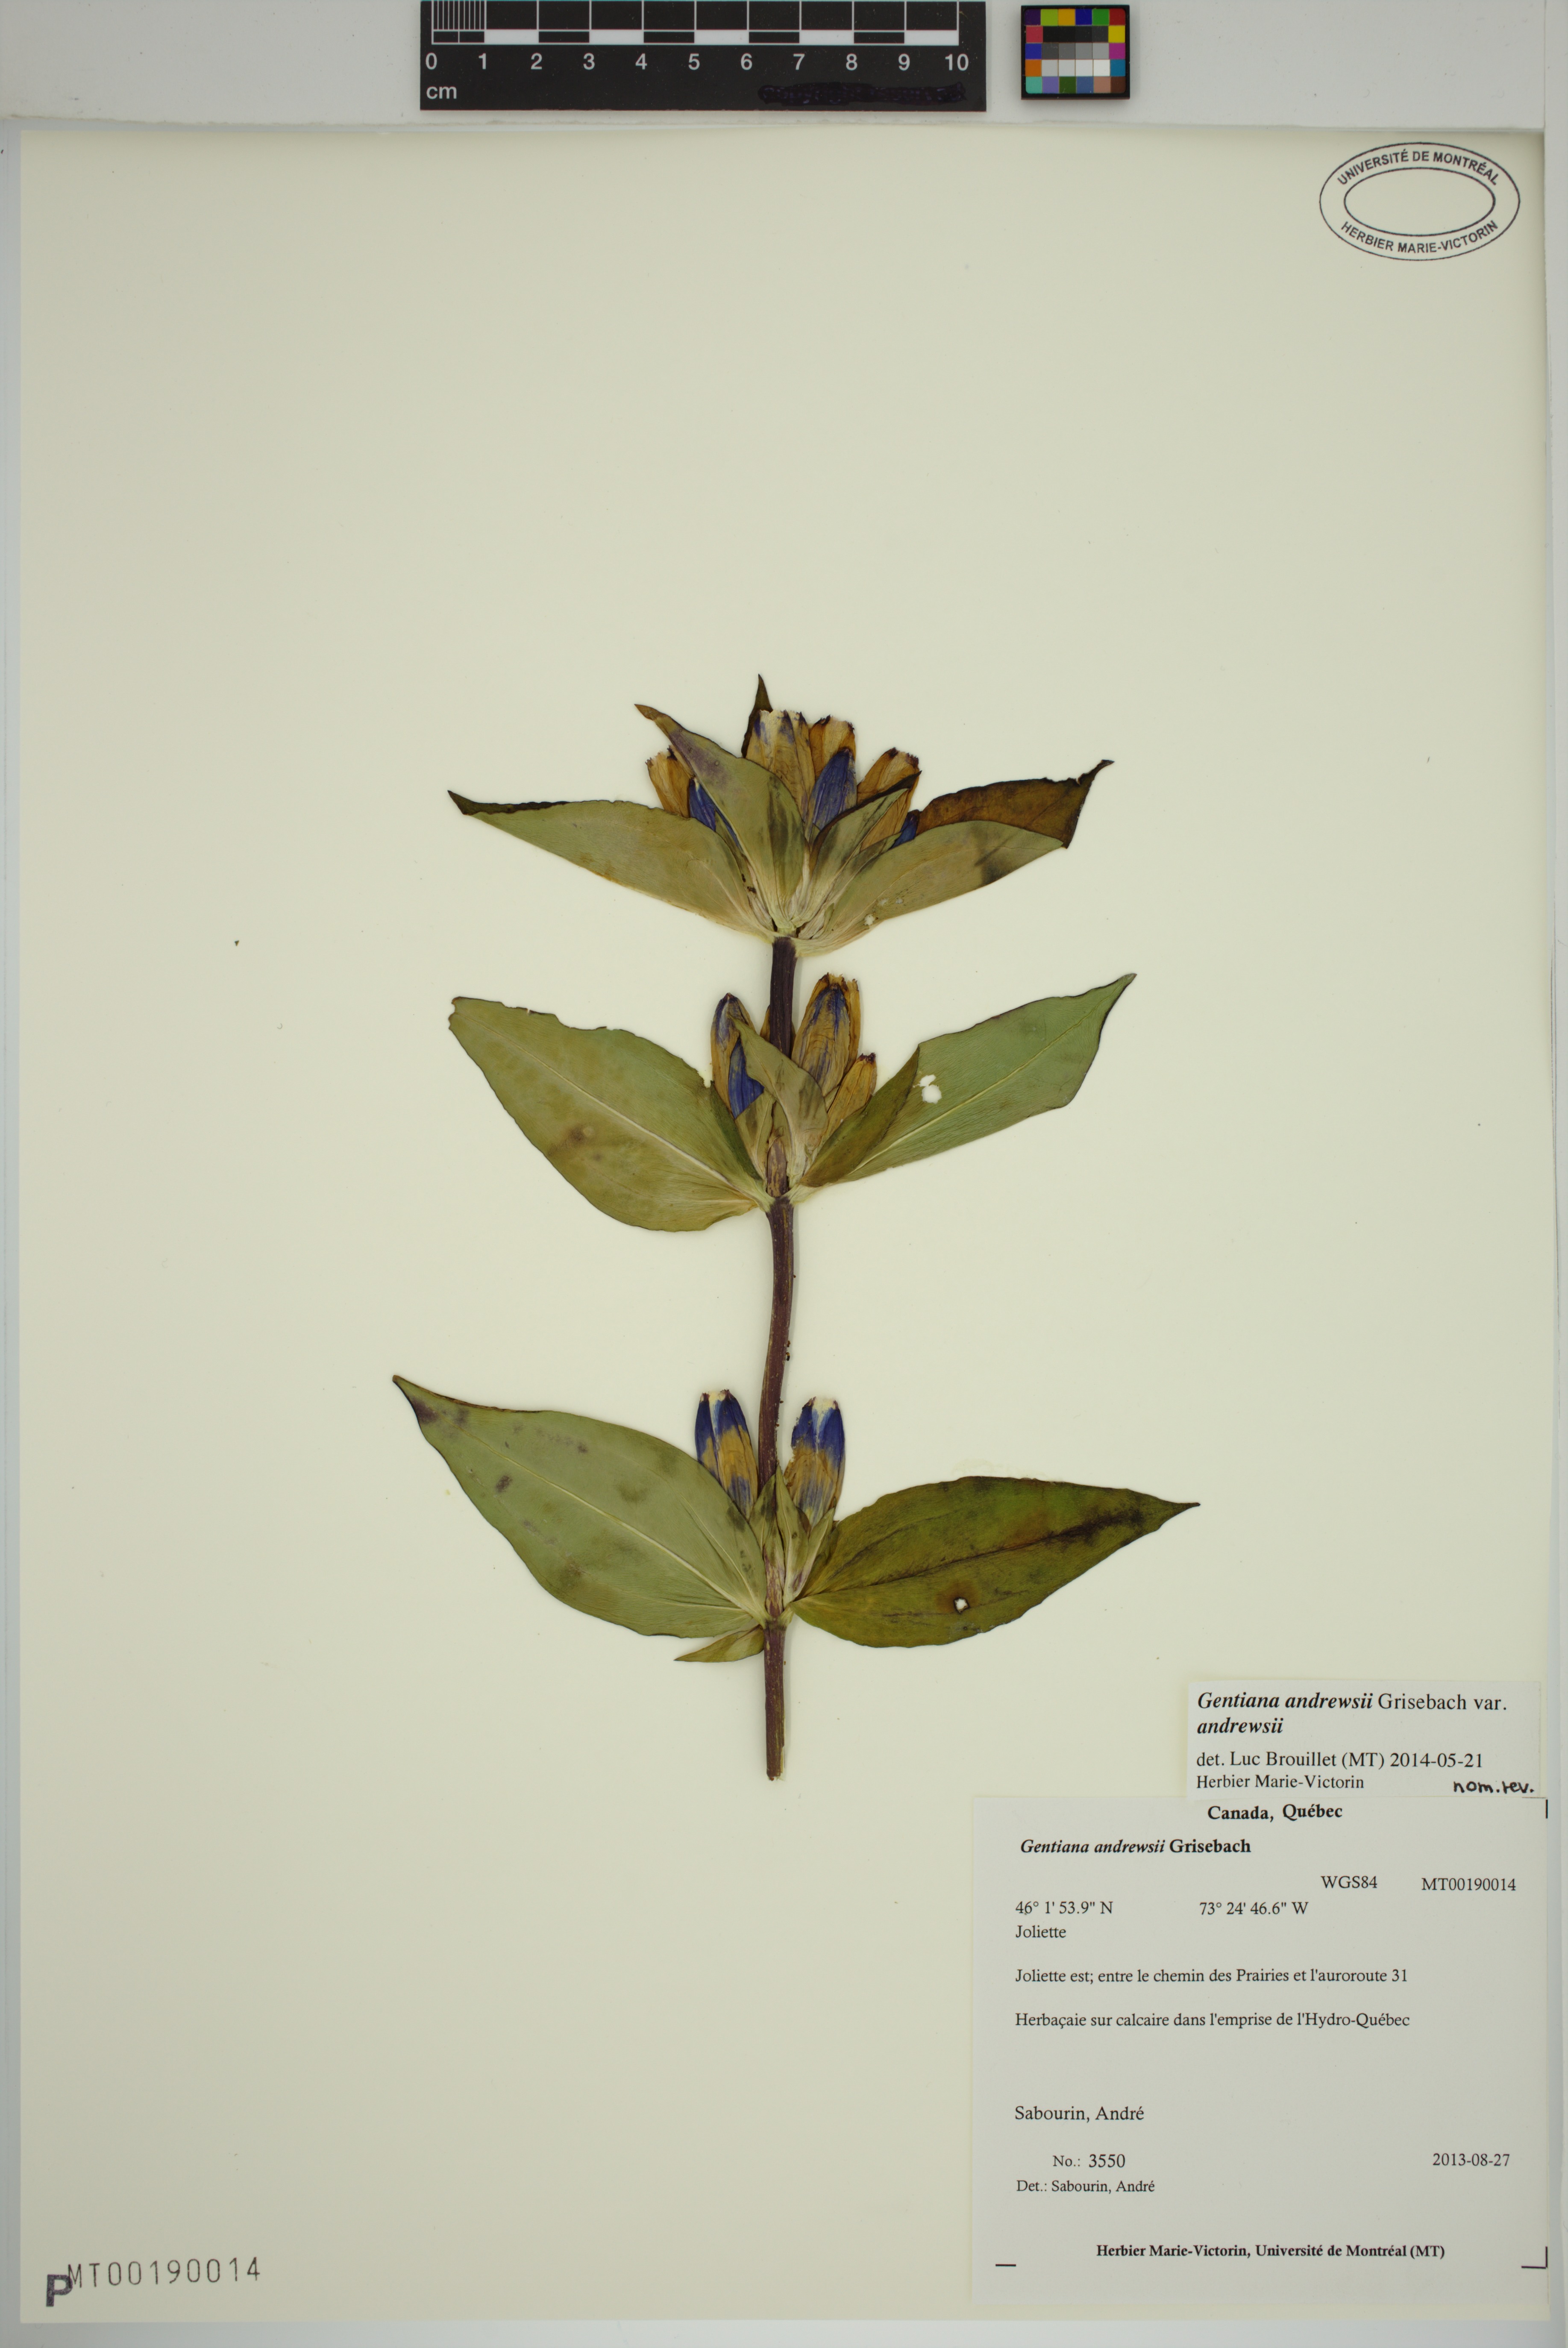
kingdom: Plantae
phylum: Tracheophyta
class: Magnoliopsida
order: Gentianales
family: Gentianaceae
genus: Gentiana
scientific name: Gentiana andrewsii
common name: Bottle gentian
